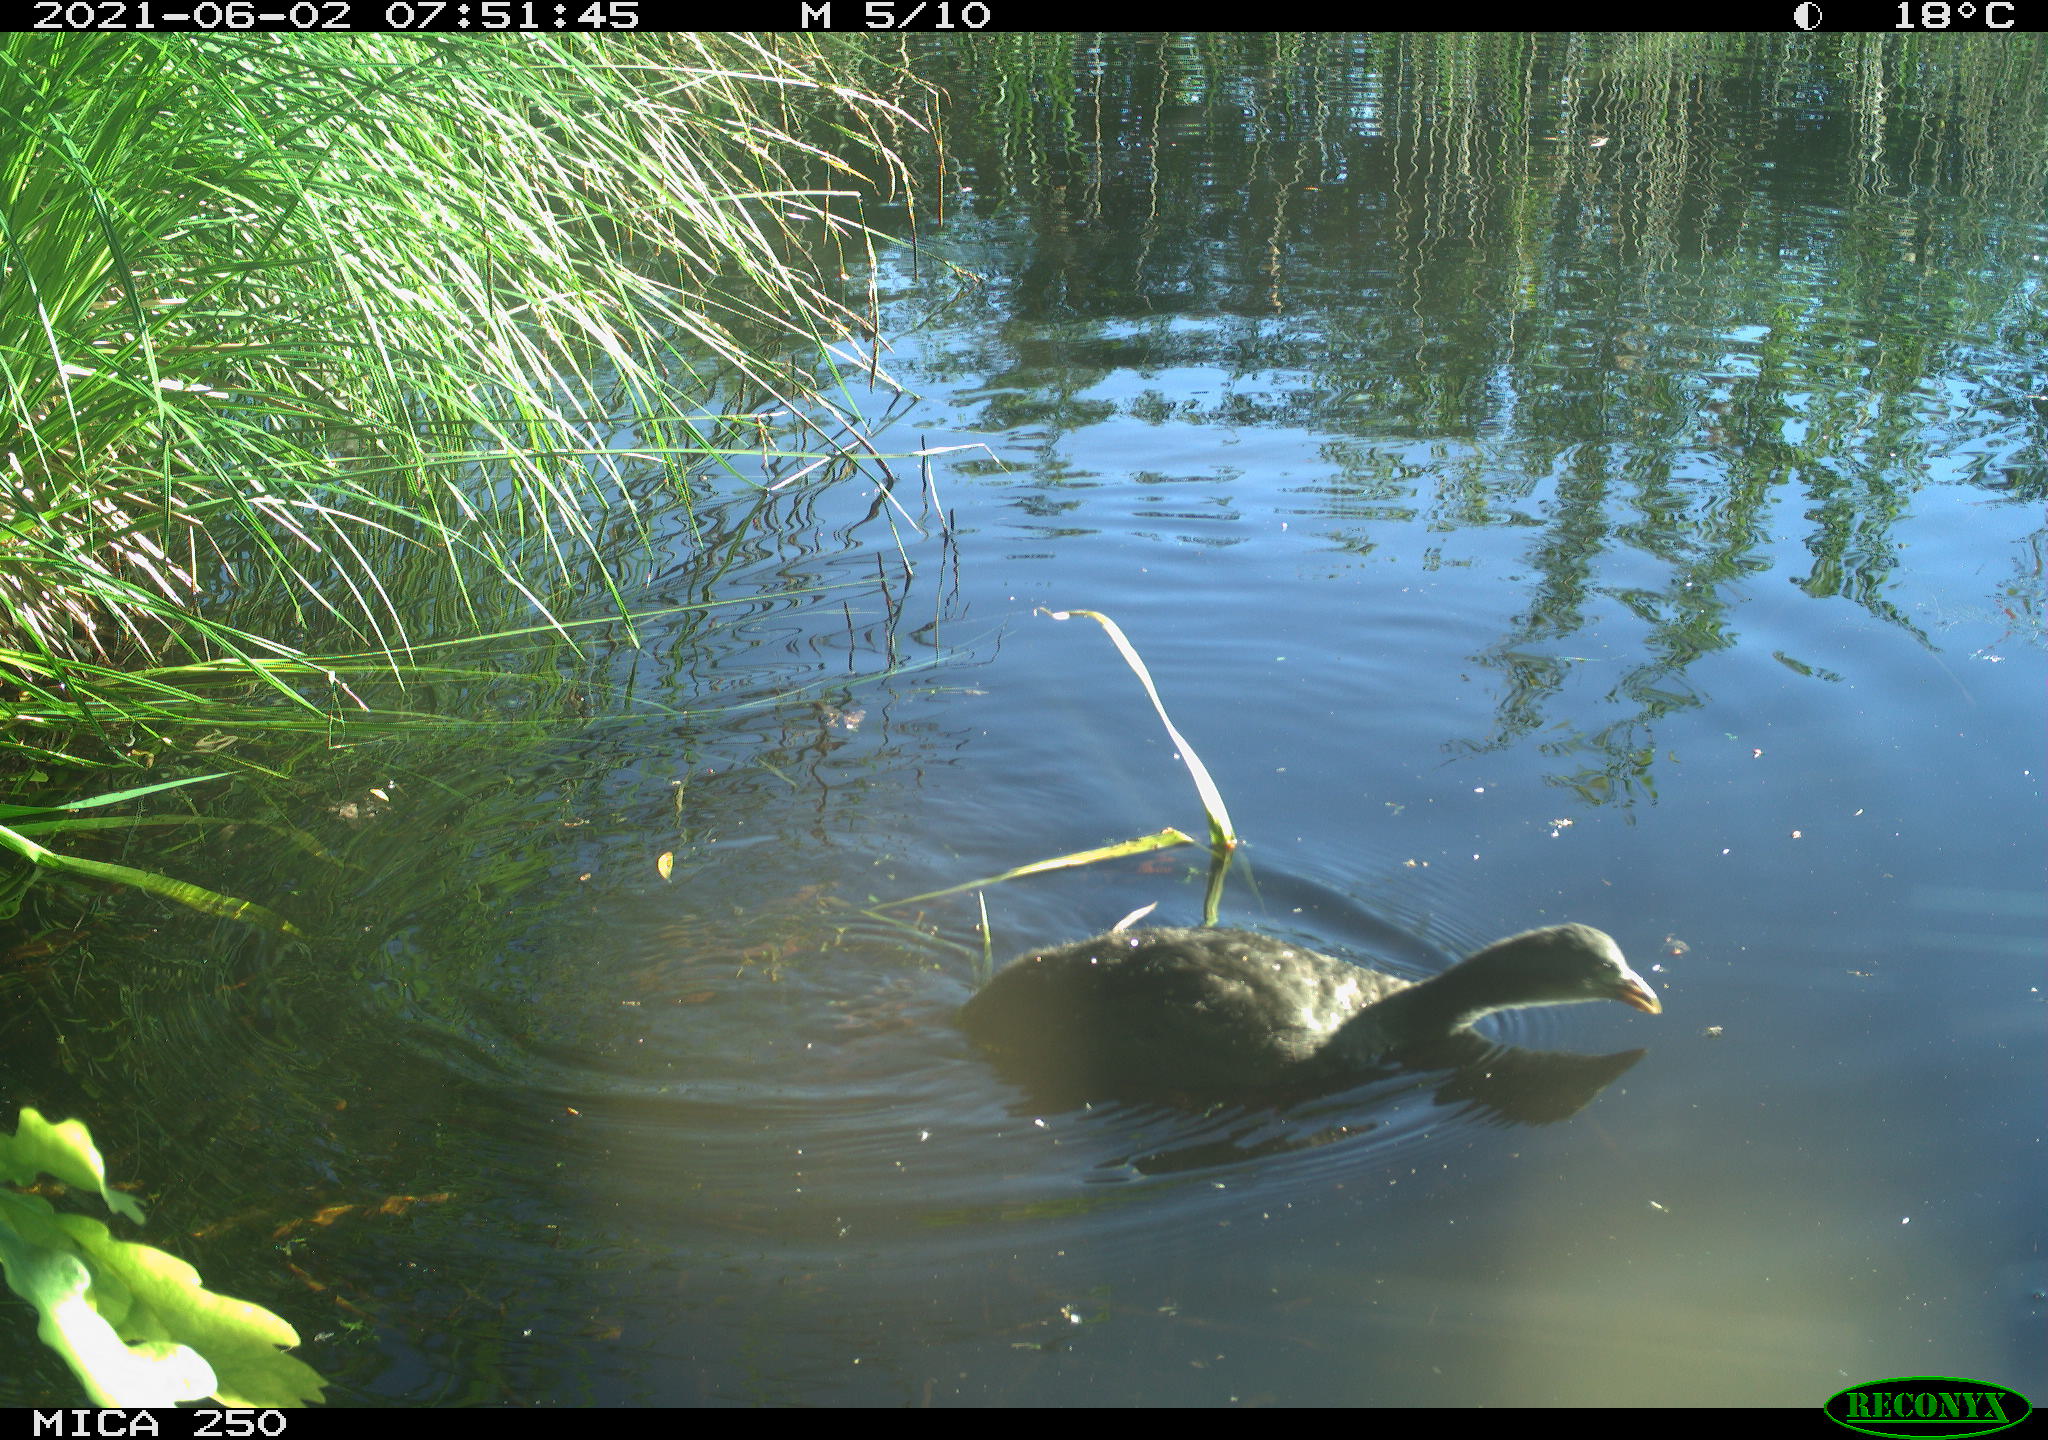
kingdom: Animalia
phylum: Chordata
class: Aves
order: Gruiformes
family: Rallidae
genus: Gallinula
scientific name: Gallinula chloropus
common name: Common moorhen
